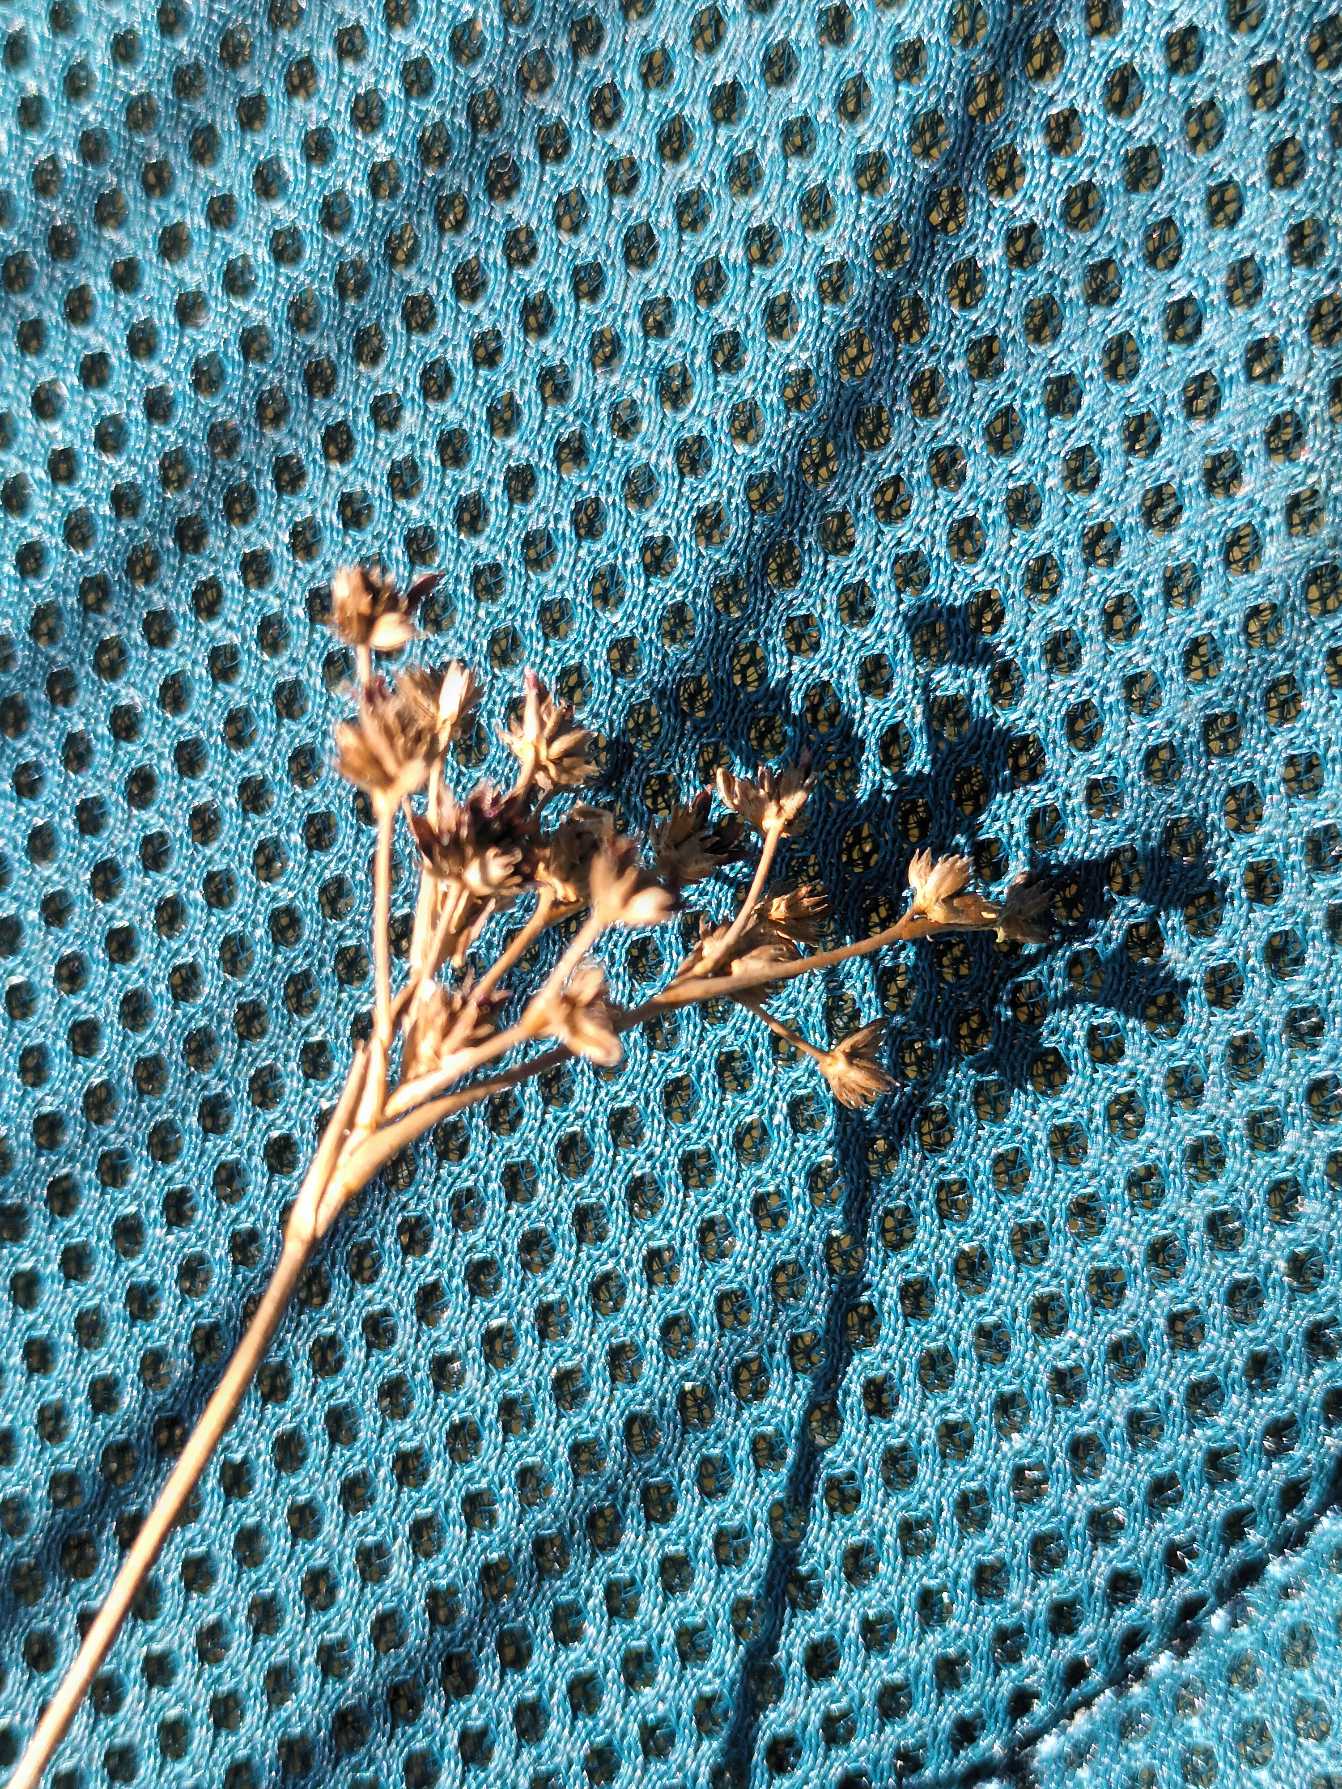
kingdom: Plantae
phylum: Tracheophyta
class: Liliopsida
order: Poales
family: Juncaceae
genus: Juncus
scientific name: Juncus articulatus
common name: Glanskapslet siv
